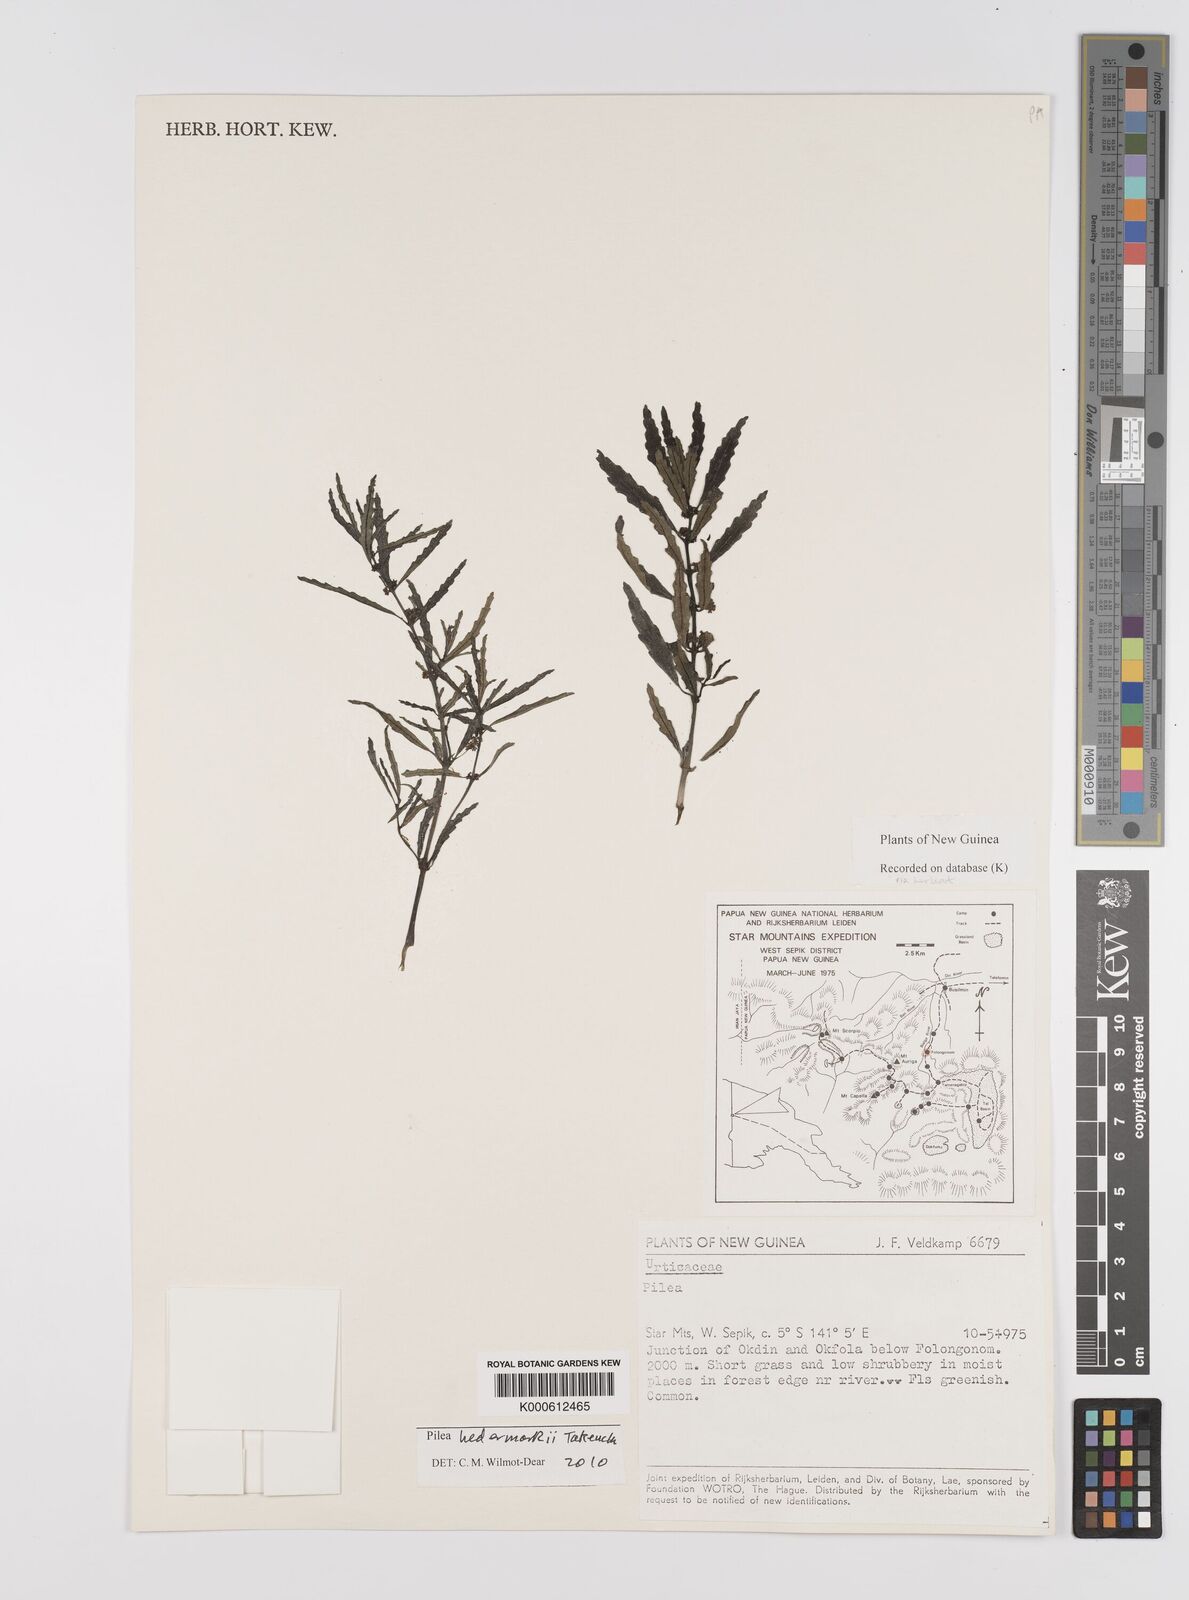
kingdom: Plantae
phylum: Tracheophyta
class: Magnoliopsida
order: Rosales
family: Urticaceae
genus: Pilea
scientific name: Pilea hedemarkii
